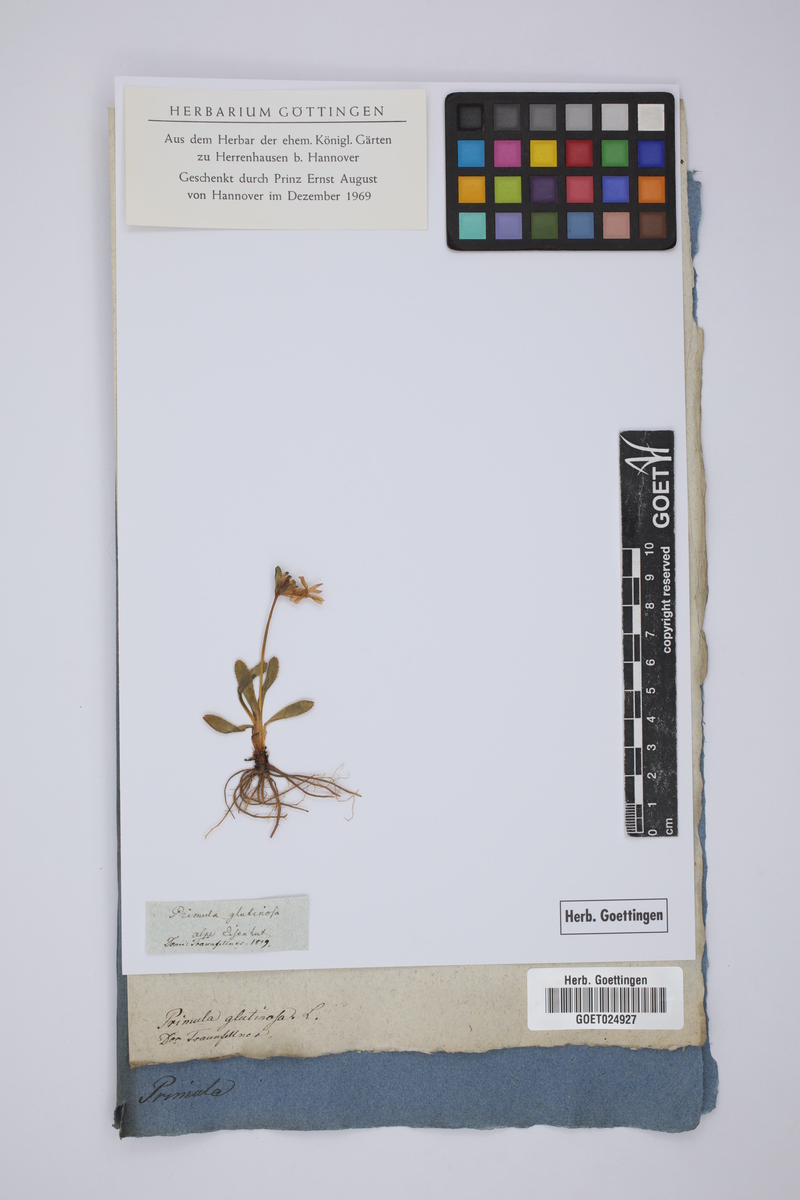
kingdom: Plantae
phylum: Tracheophyta
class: Magnoliopsida
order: Ericales
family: Primulaceae
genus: Primula
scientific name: Primula glutinosa
